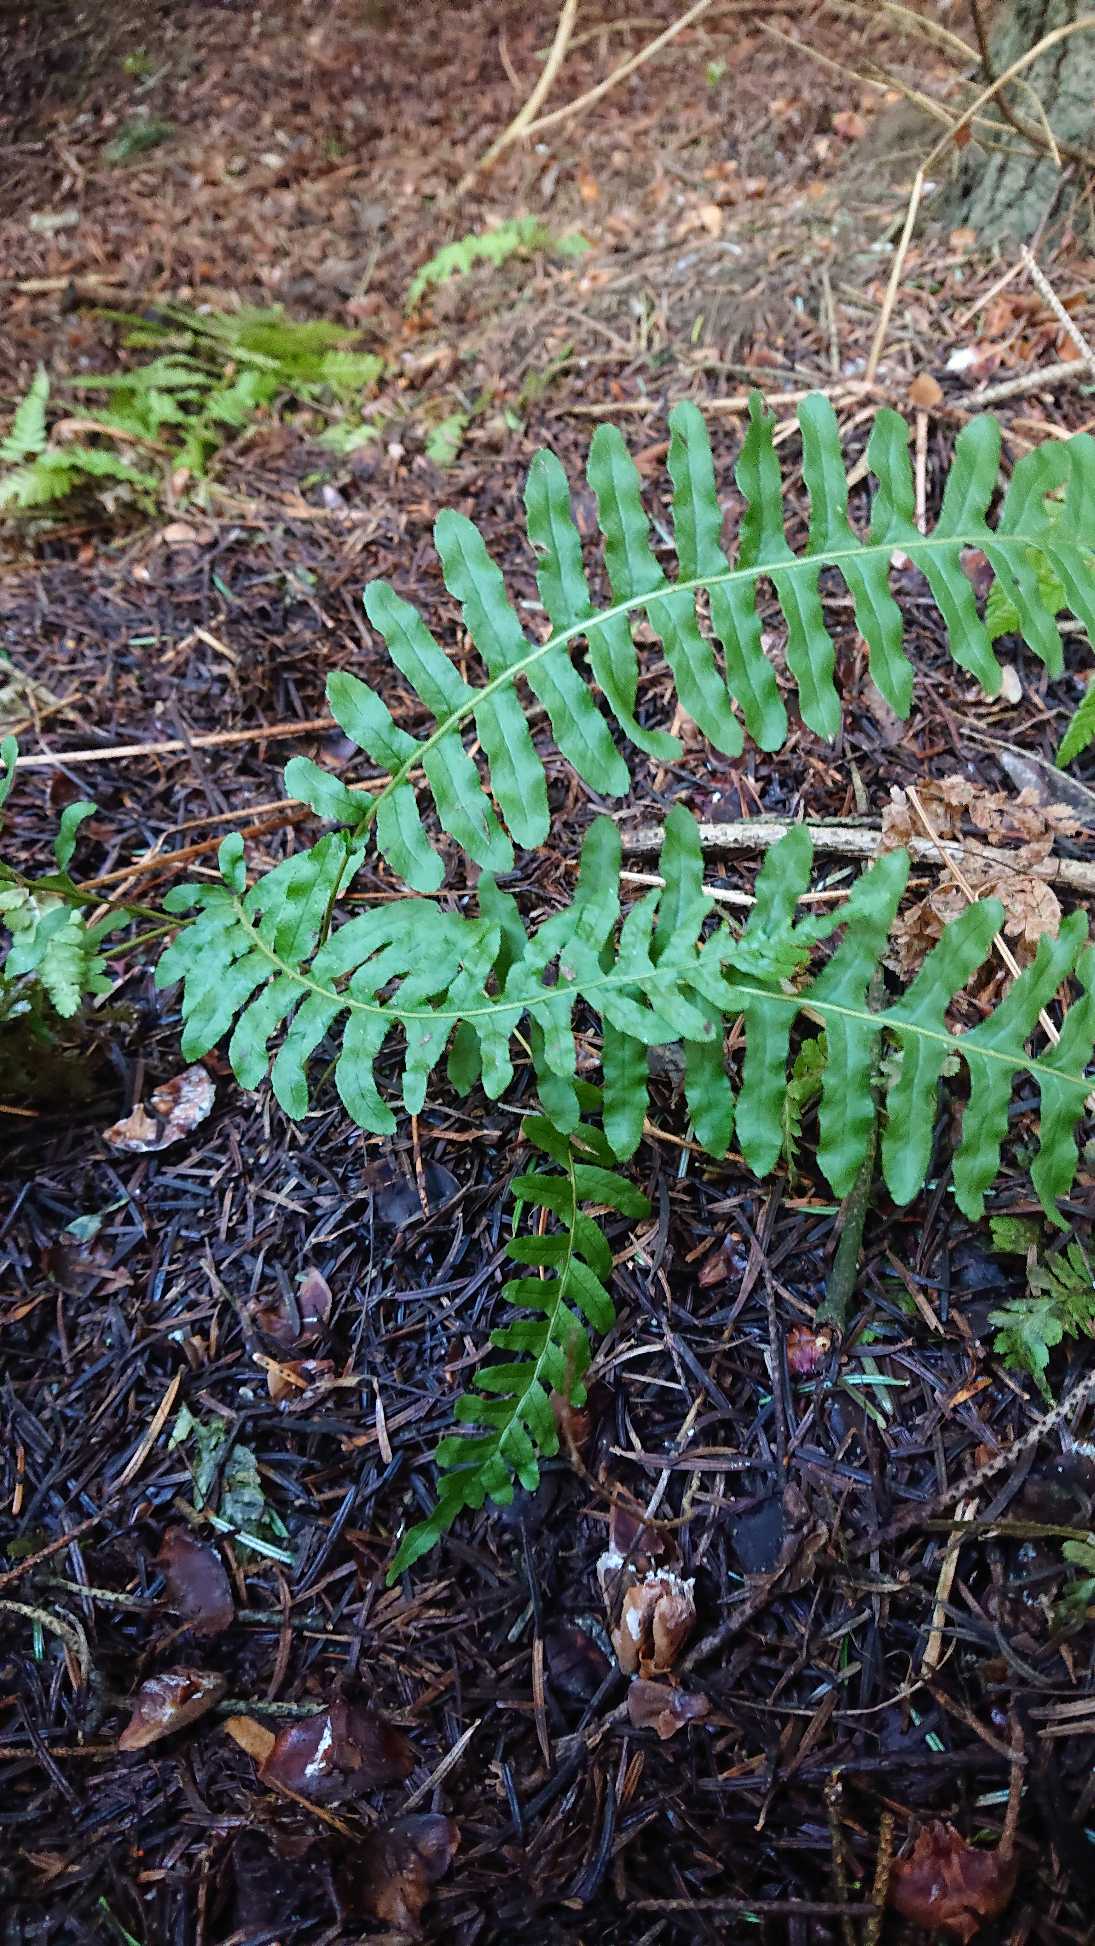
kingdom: Plantae
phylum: Tracheophyta
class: Polypodiopsida
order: Polypodiales
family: Polypodiaceae
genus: Polypodium
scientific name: Polypodium vulgare
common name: Almindelig engelsød
